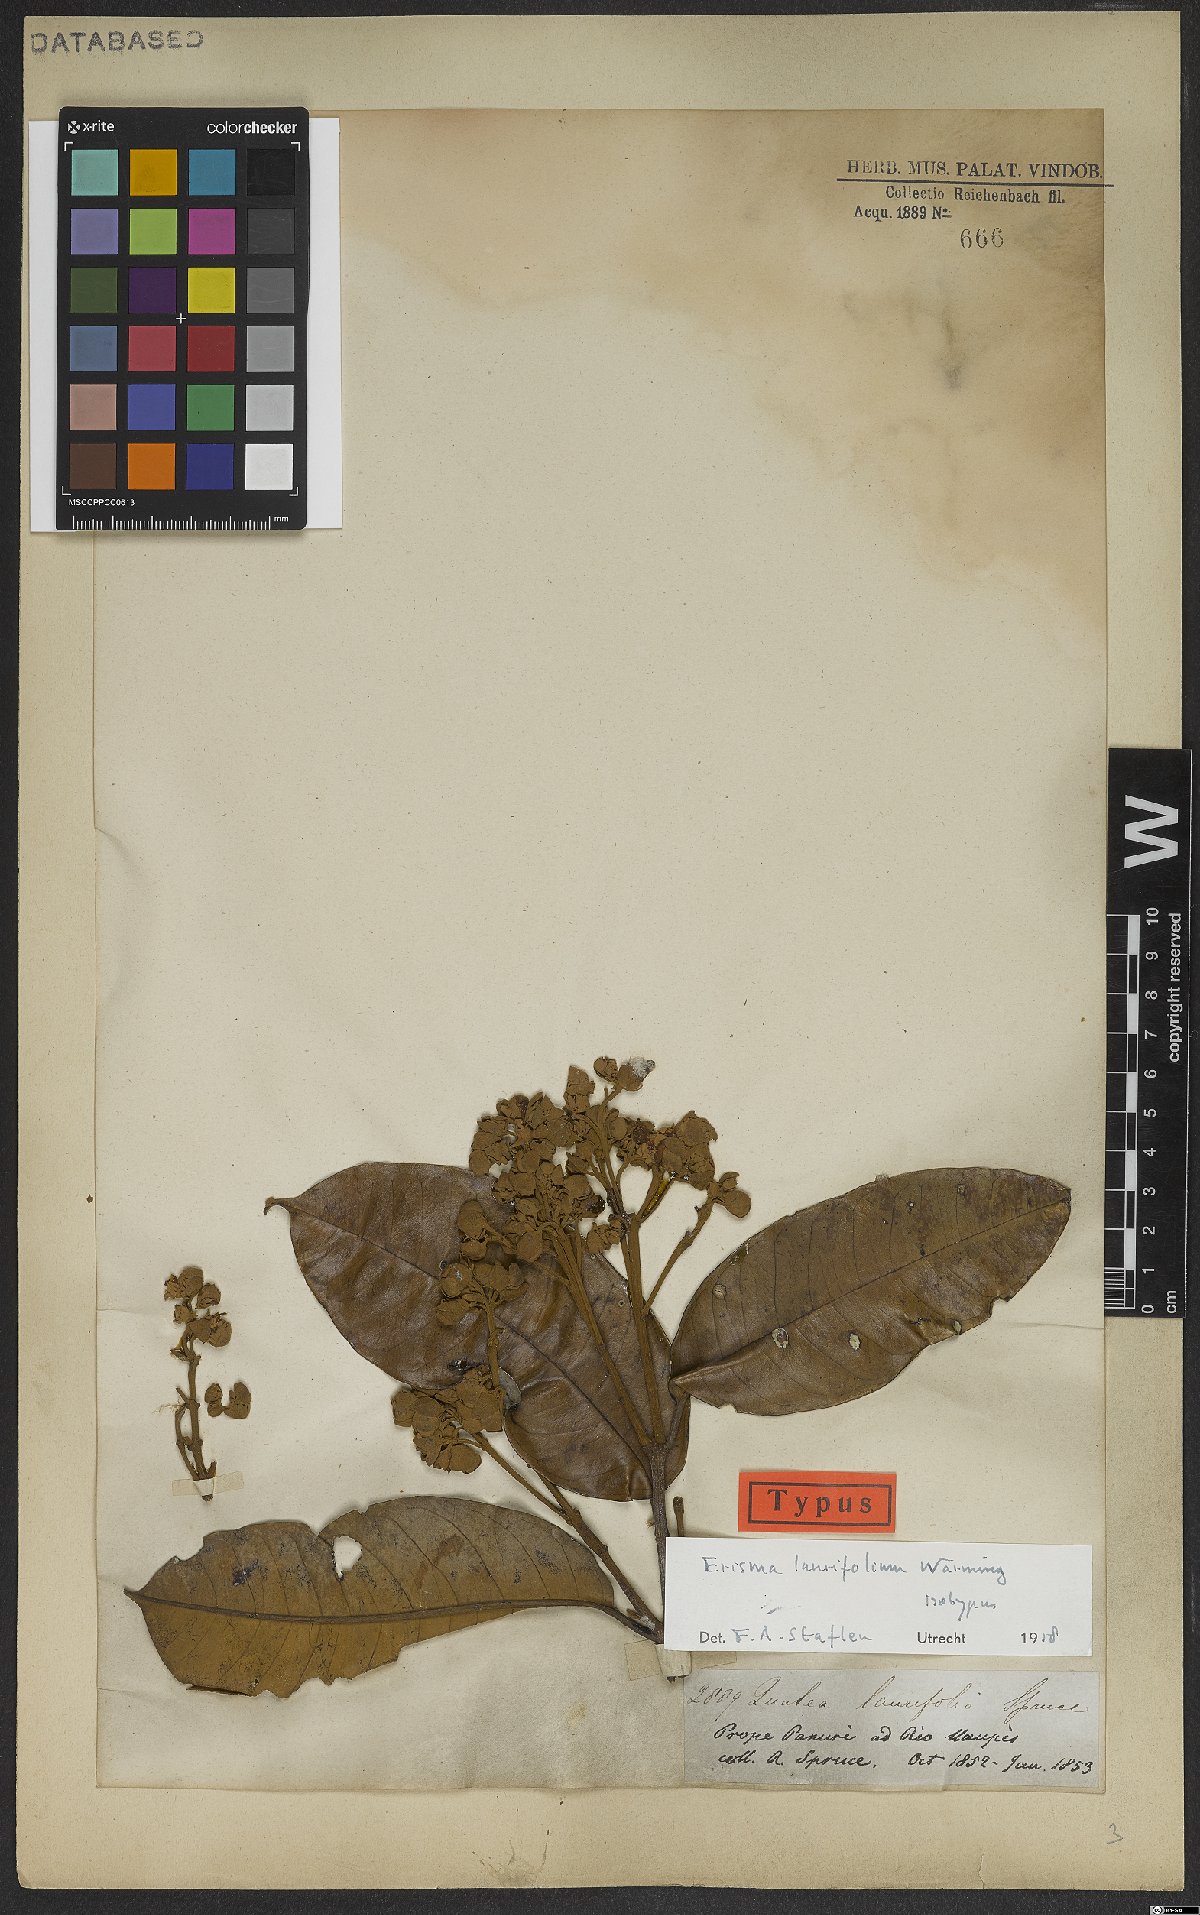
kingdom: Plantae
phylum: Tracheophyta
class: Magnoliopsida
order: Myrtales
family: Vochysiaceae
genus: Erisma
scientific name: Erisma laurifolium
